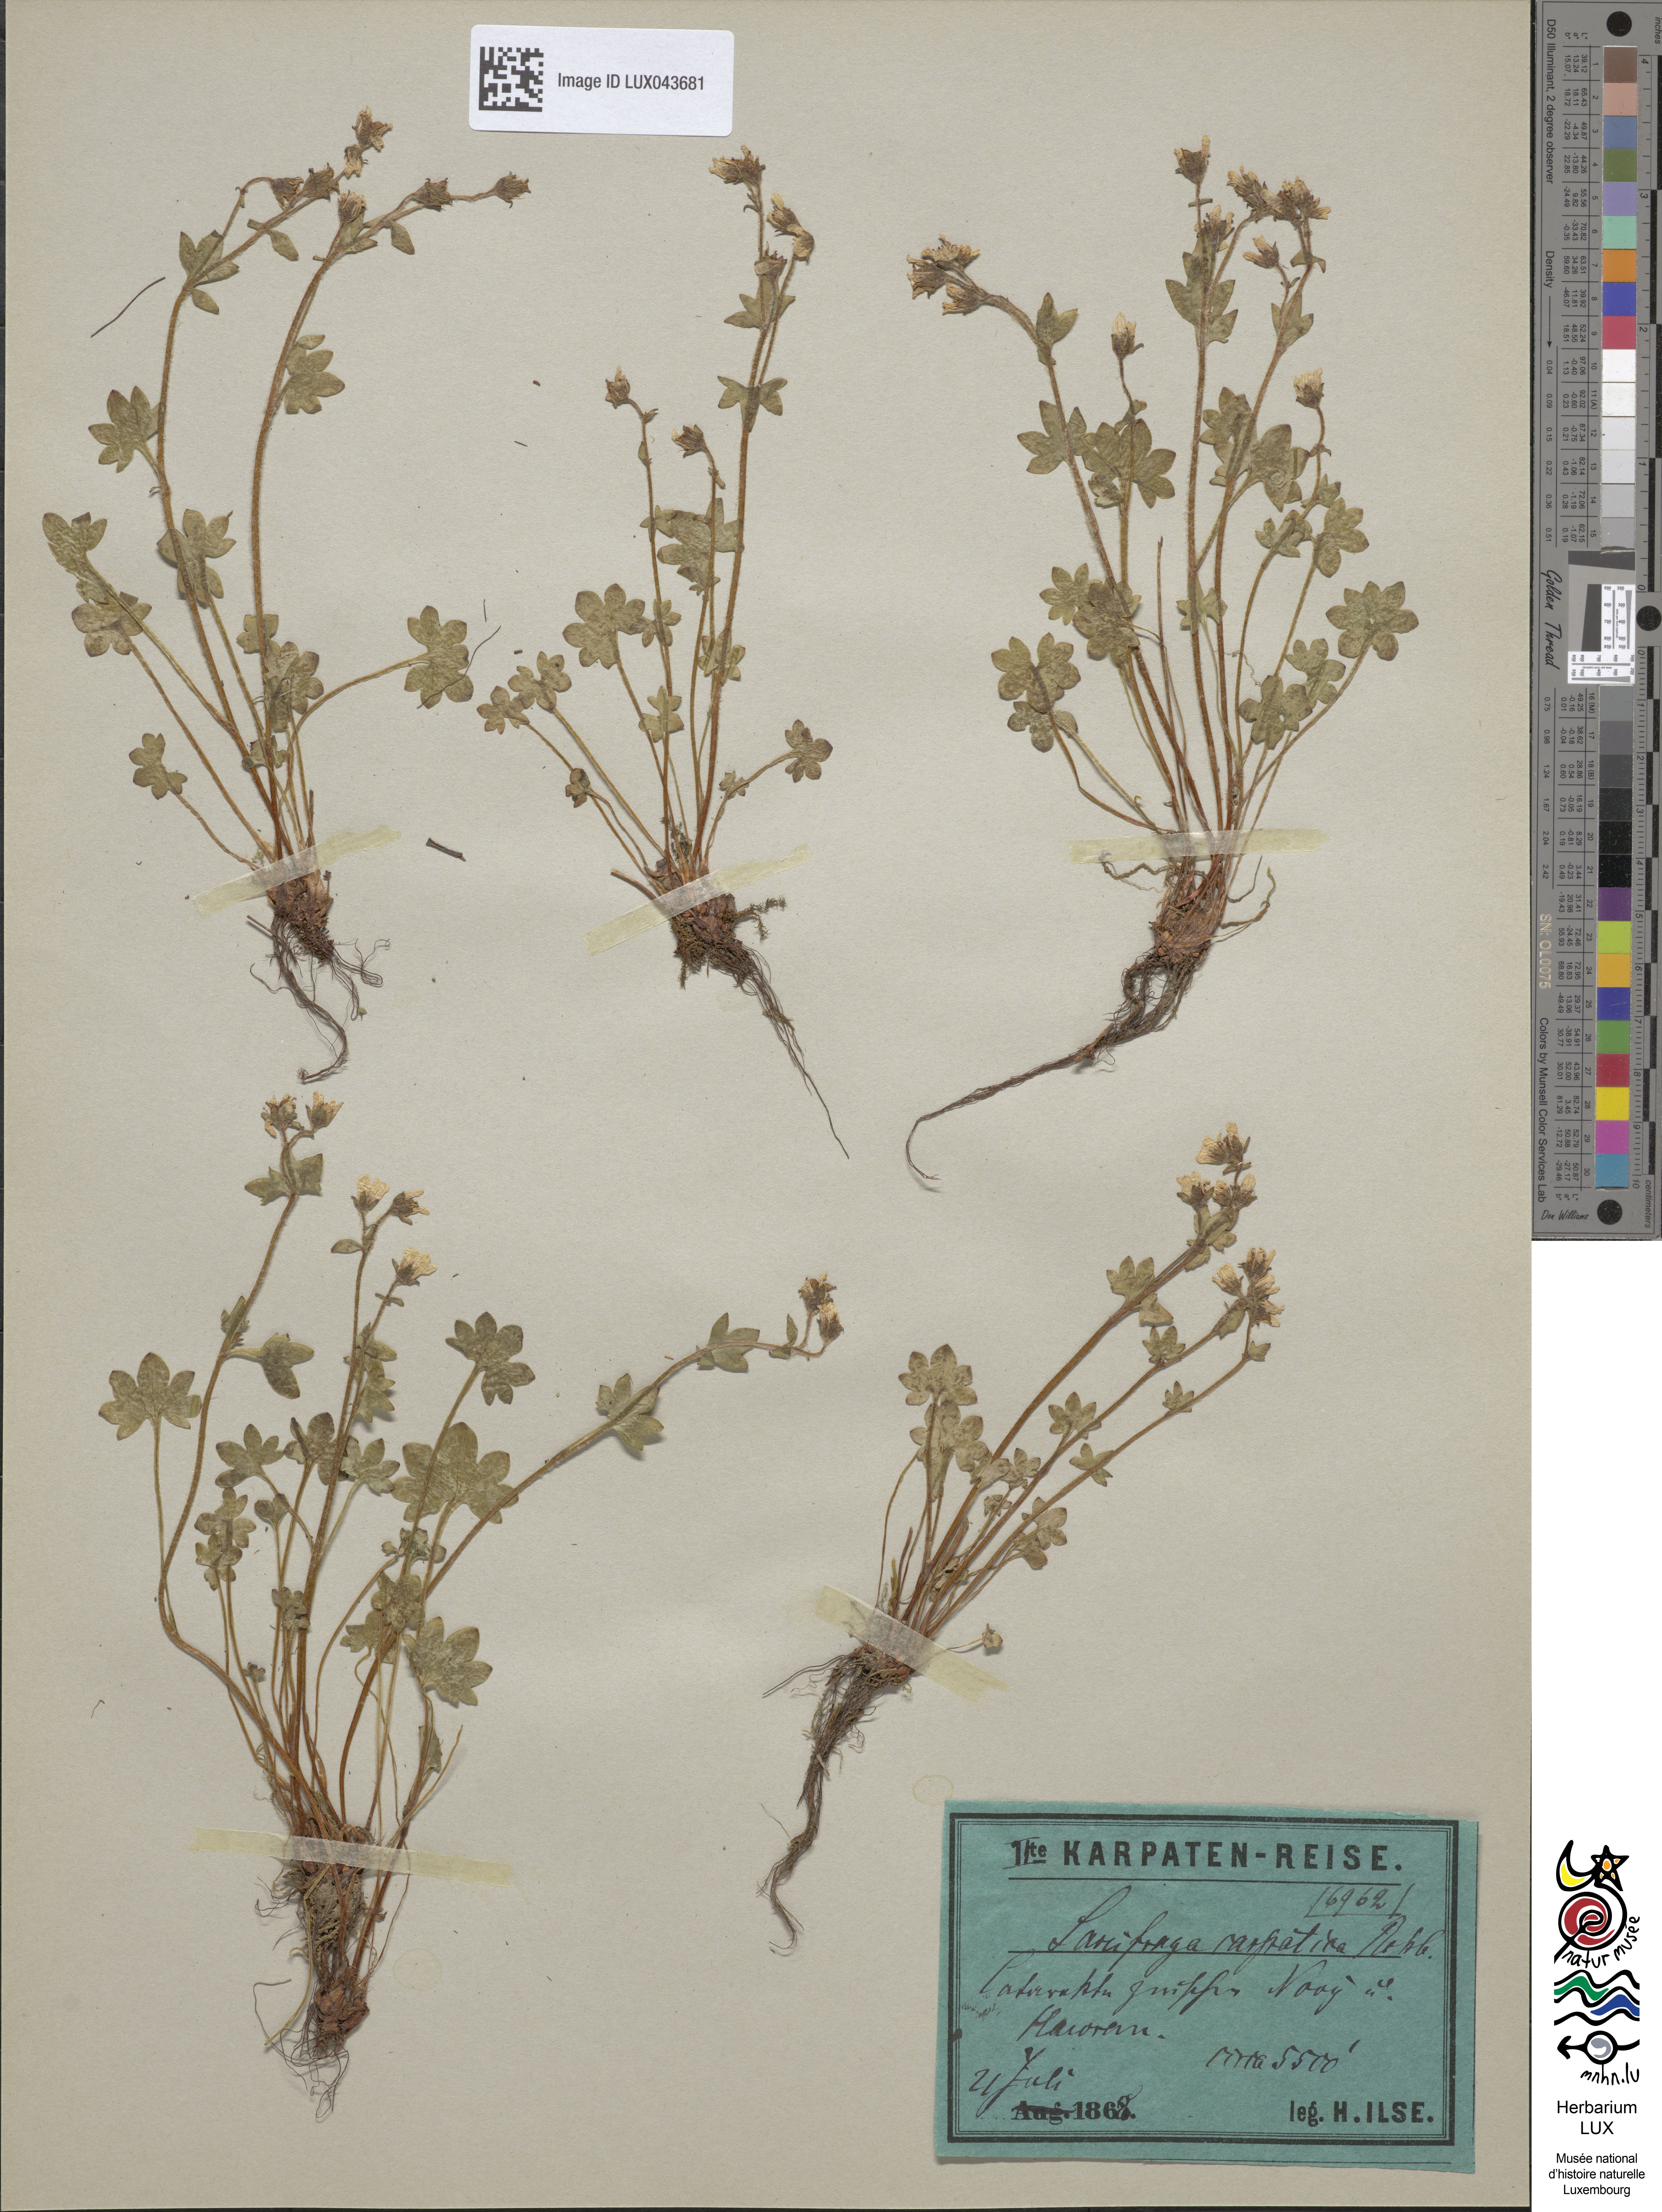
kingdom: Plantae
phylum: Tracheophyta
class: Magnoliopsida
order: Saxifragales
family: Saxifragaceae
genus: Saxifraga
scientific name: Saxifraga carpatica
